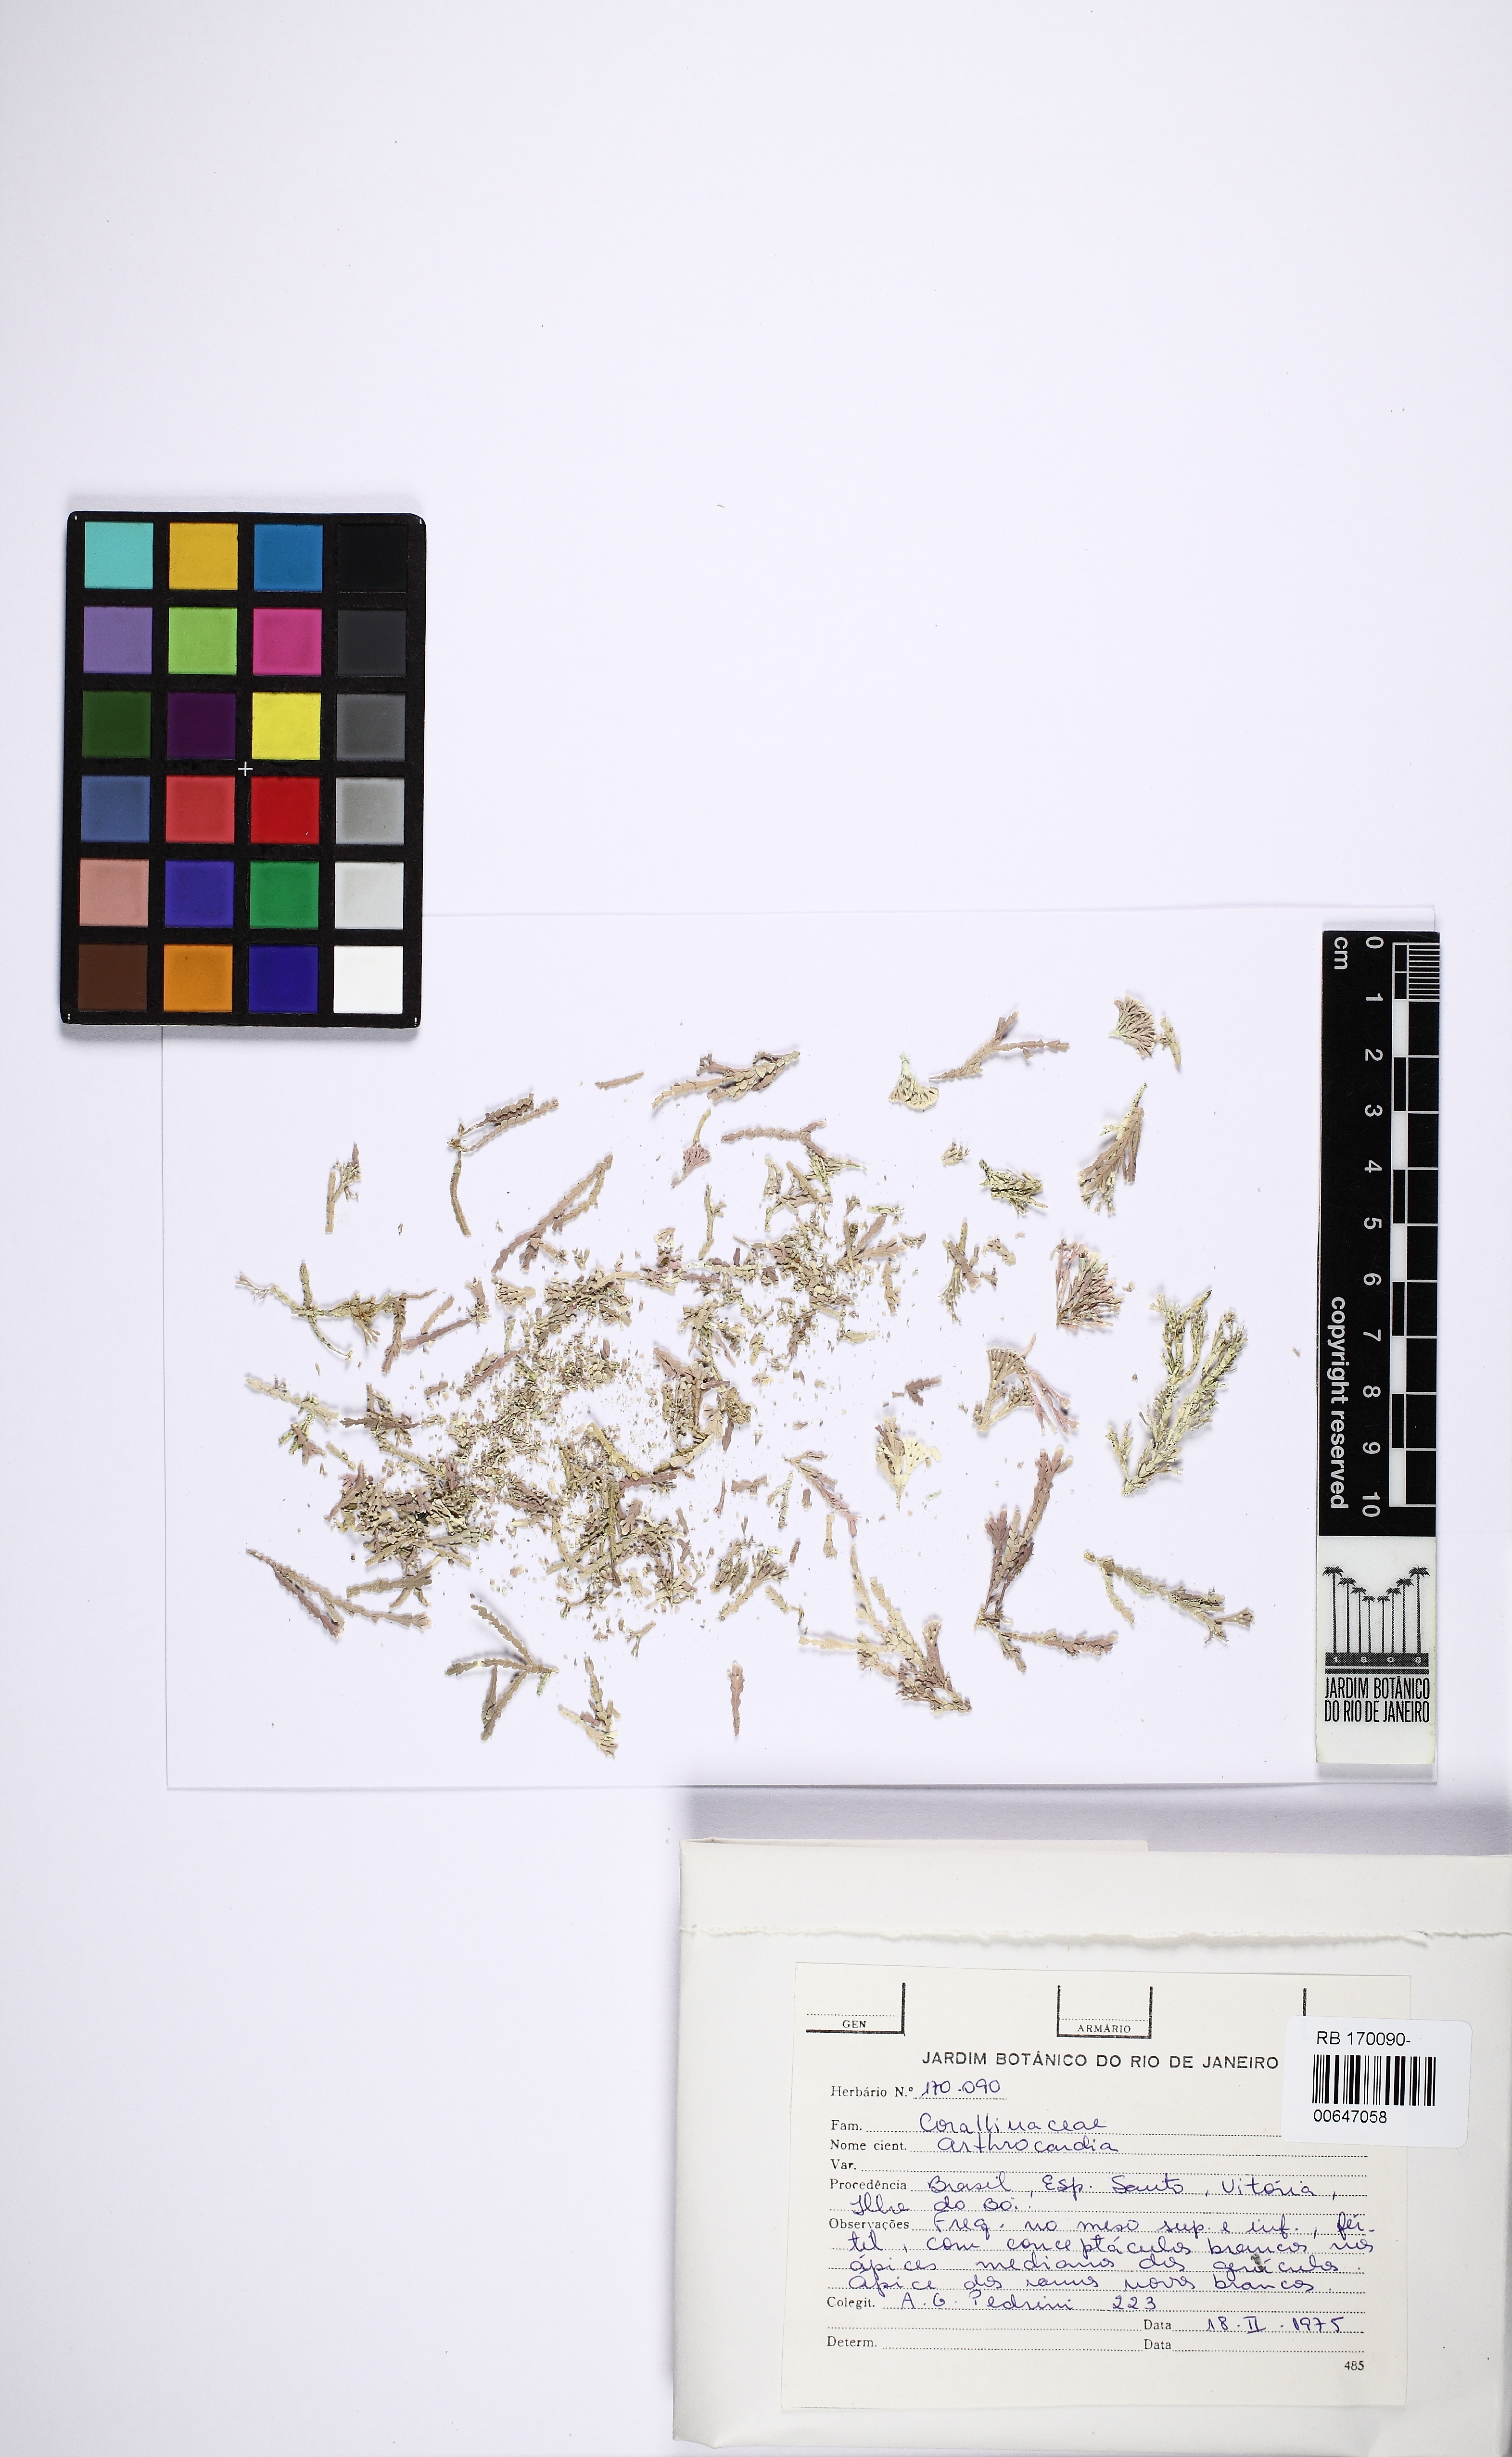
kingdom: Plantae
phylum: Rhodophyta
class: Florideophyceae
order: Corallinales
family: Corallinaceae
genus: Arthrocardia
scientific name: Arthrocardia
